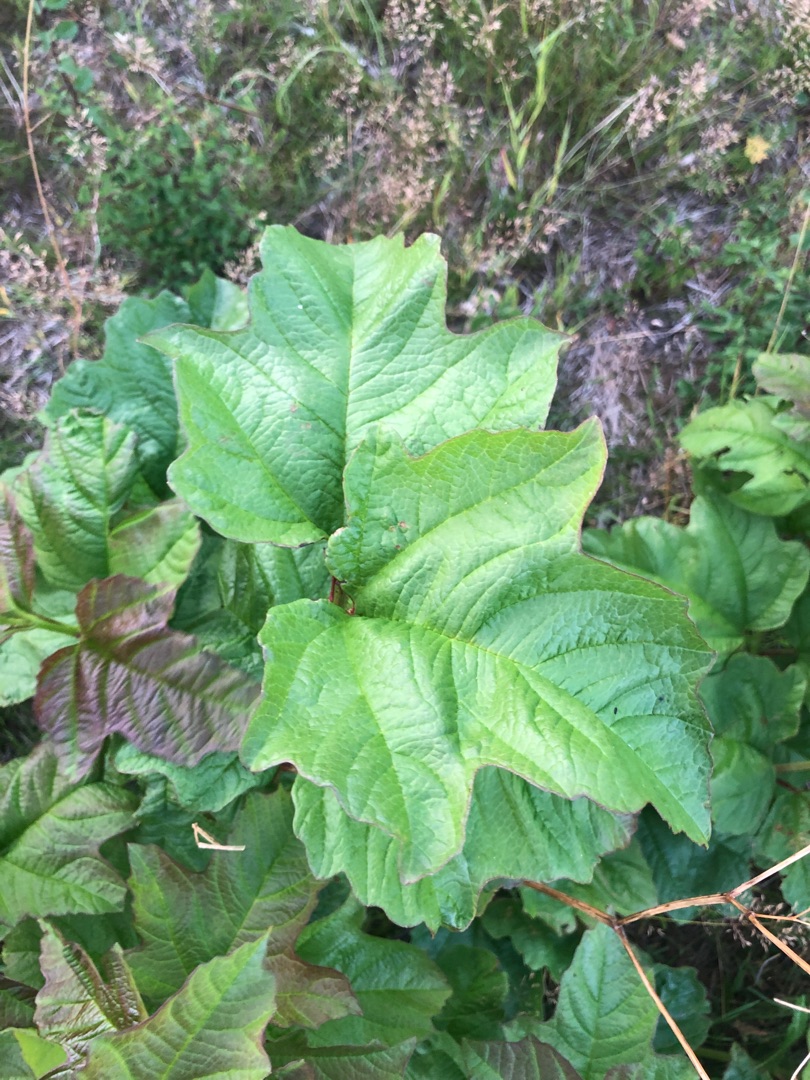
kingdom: Plantae
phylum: Tracheophyta
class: Magnoliopsida
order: Dipsacales
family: Viburnaceae
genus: Viburnum
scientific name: Viburnum opulus
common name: Kvalkved
